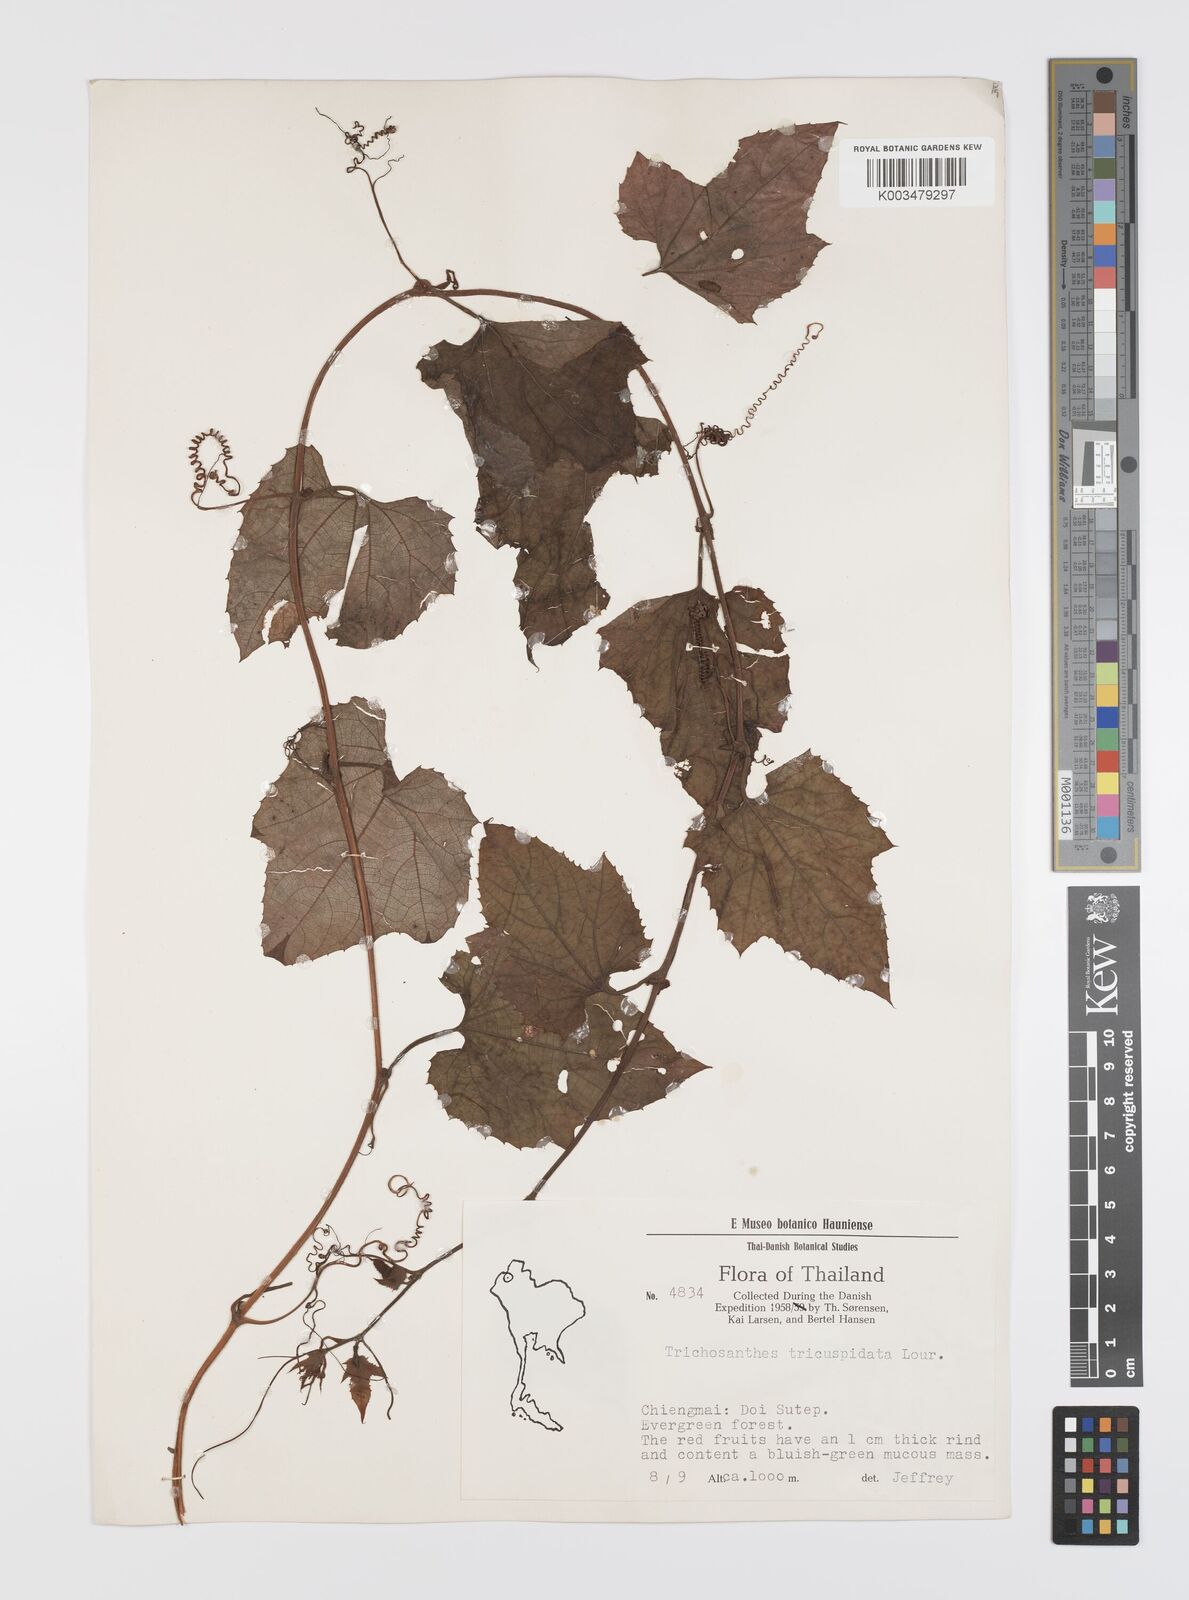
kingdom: Plantae
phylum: Tracheophyta
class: Magnoliopsida
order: Cucurbitales
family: Cucurbitaceae
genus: Trichosanthes
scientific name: Trichosanthes rubriflos
